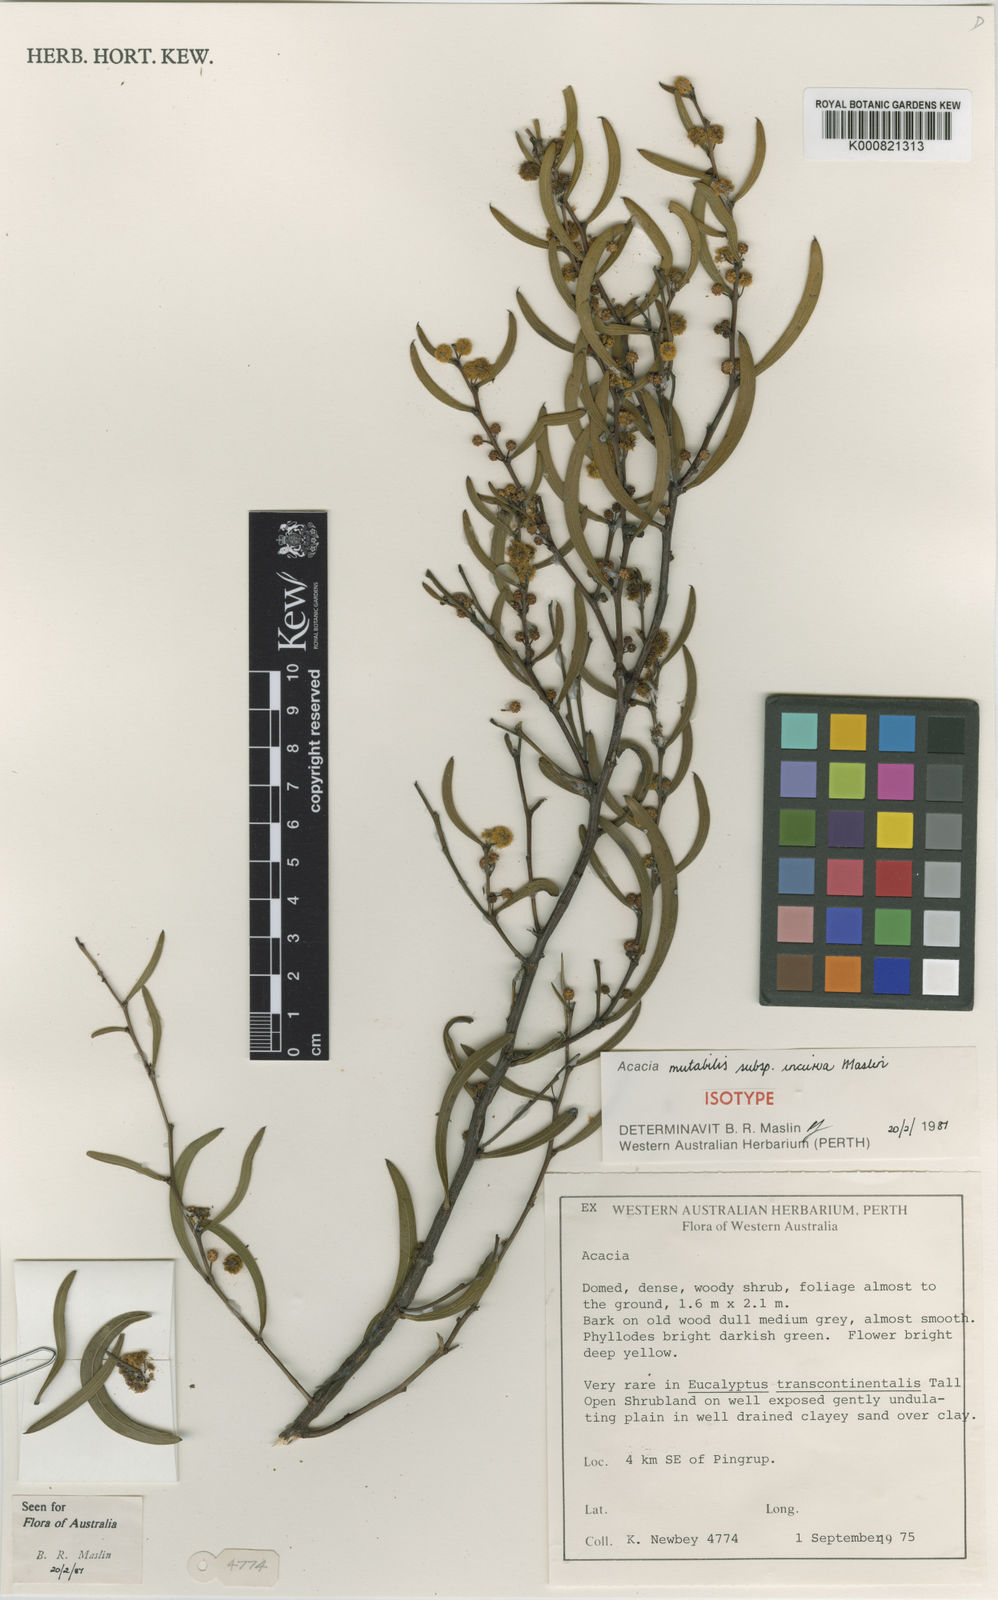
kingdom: Plantae
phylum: Tracheophyta
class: Magnoliopsida
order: Fabales
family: Fabaceae
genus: Acacia
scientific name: Acacia mutabilis
